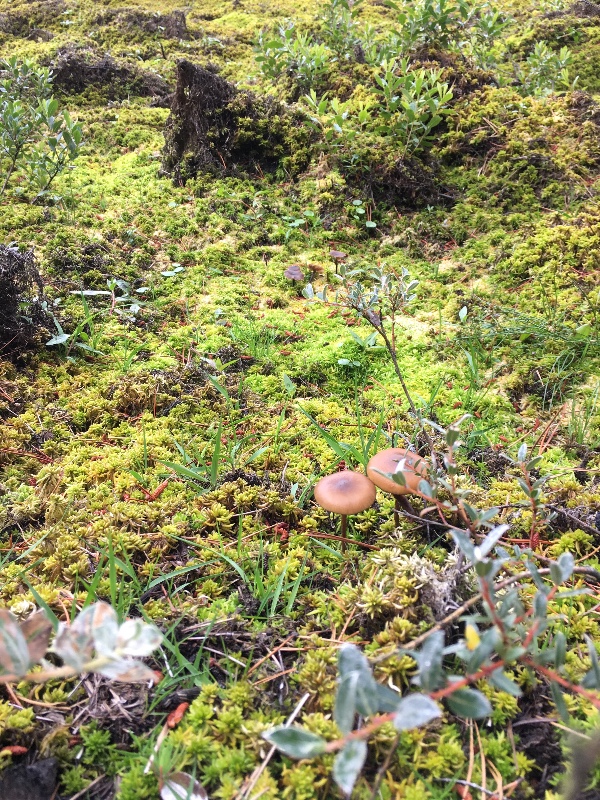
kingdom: Fungi
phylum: Basidiomycota
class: Agaricomycetes
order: Agaricales
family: Strophariaceae
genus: Hypholoma
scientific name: Hypholoma myosotis
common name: slimet svovlhat
